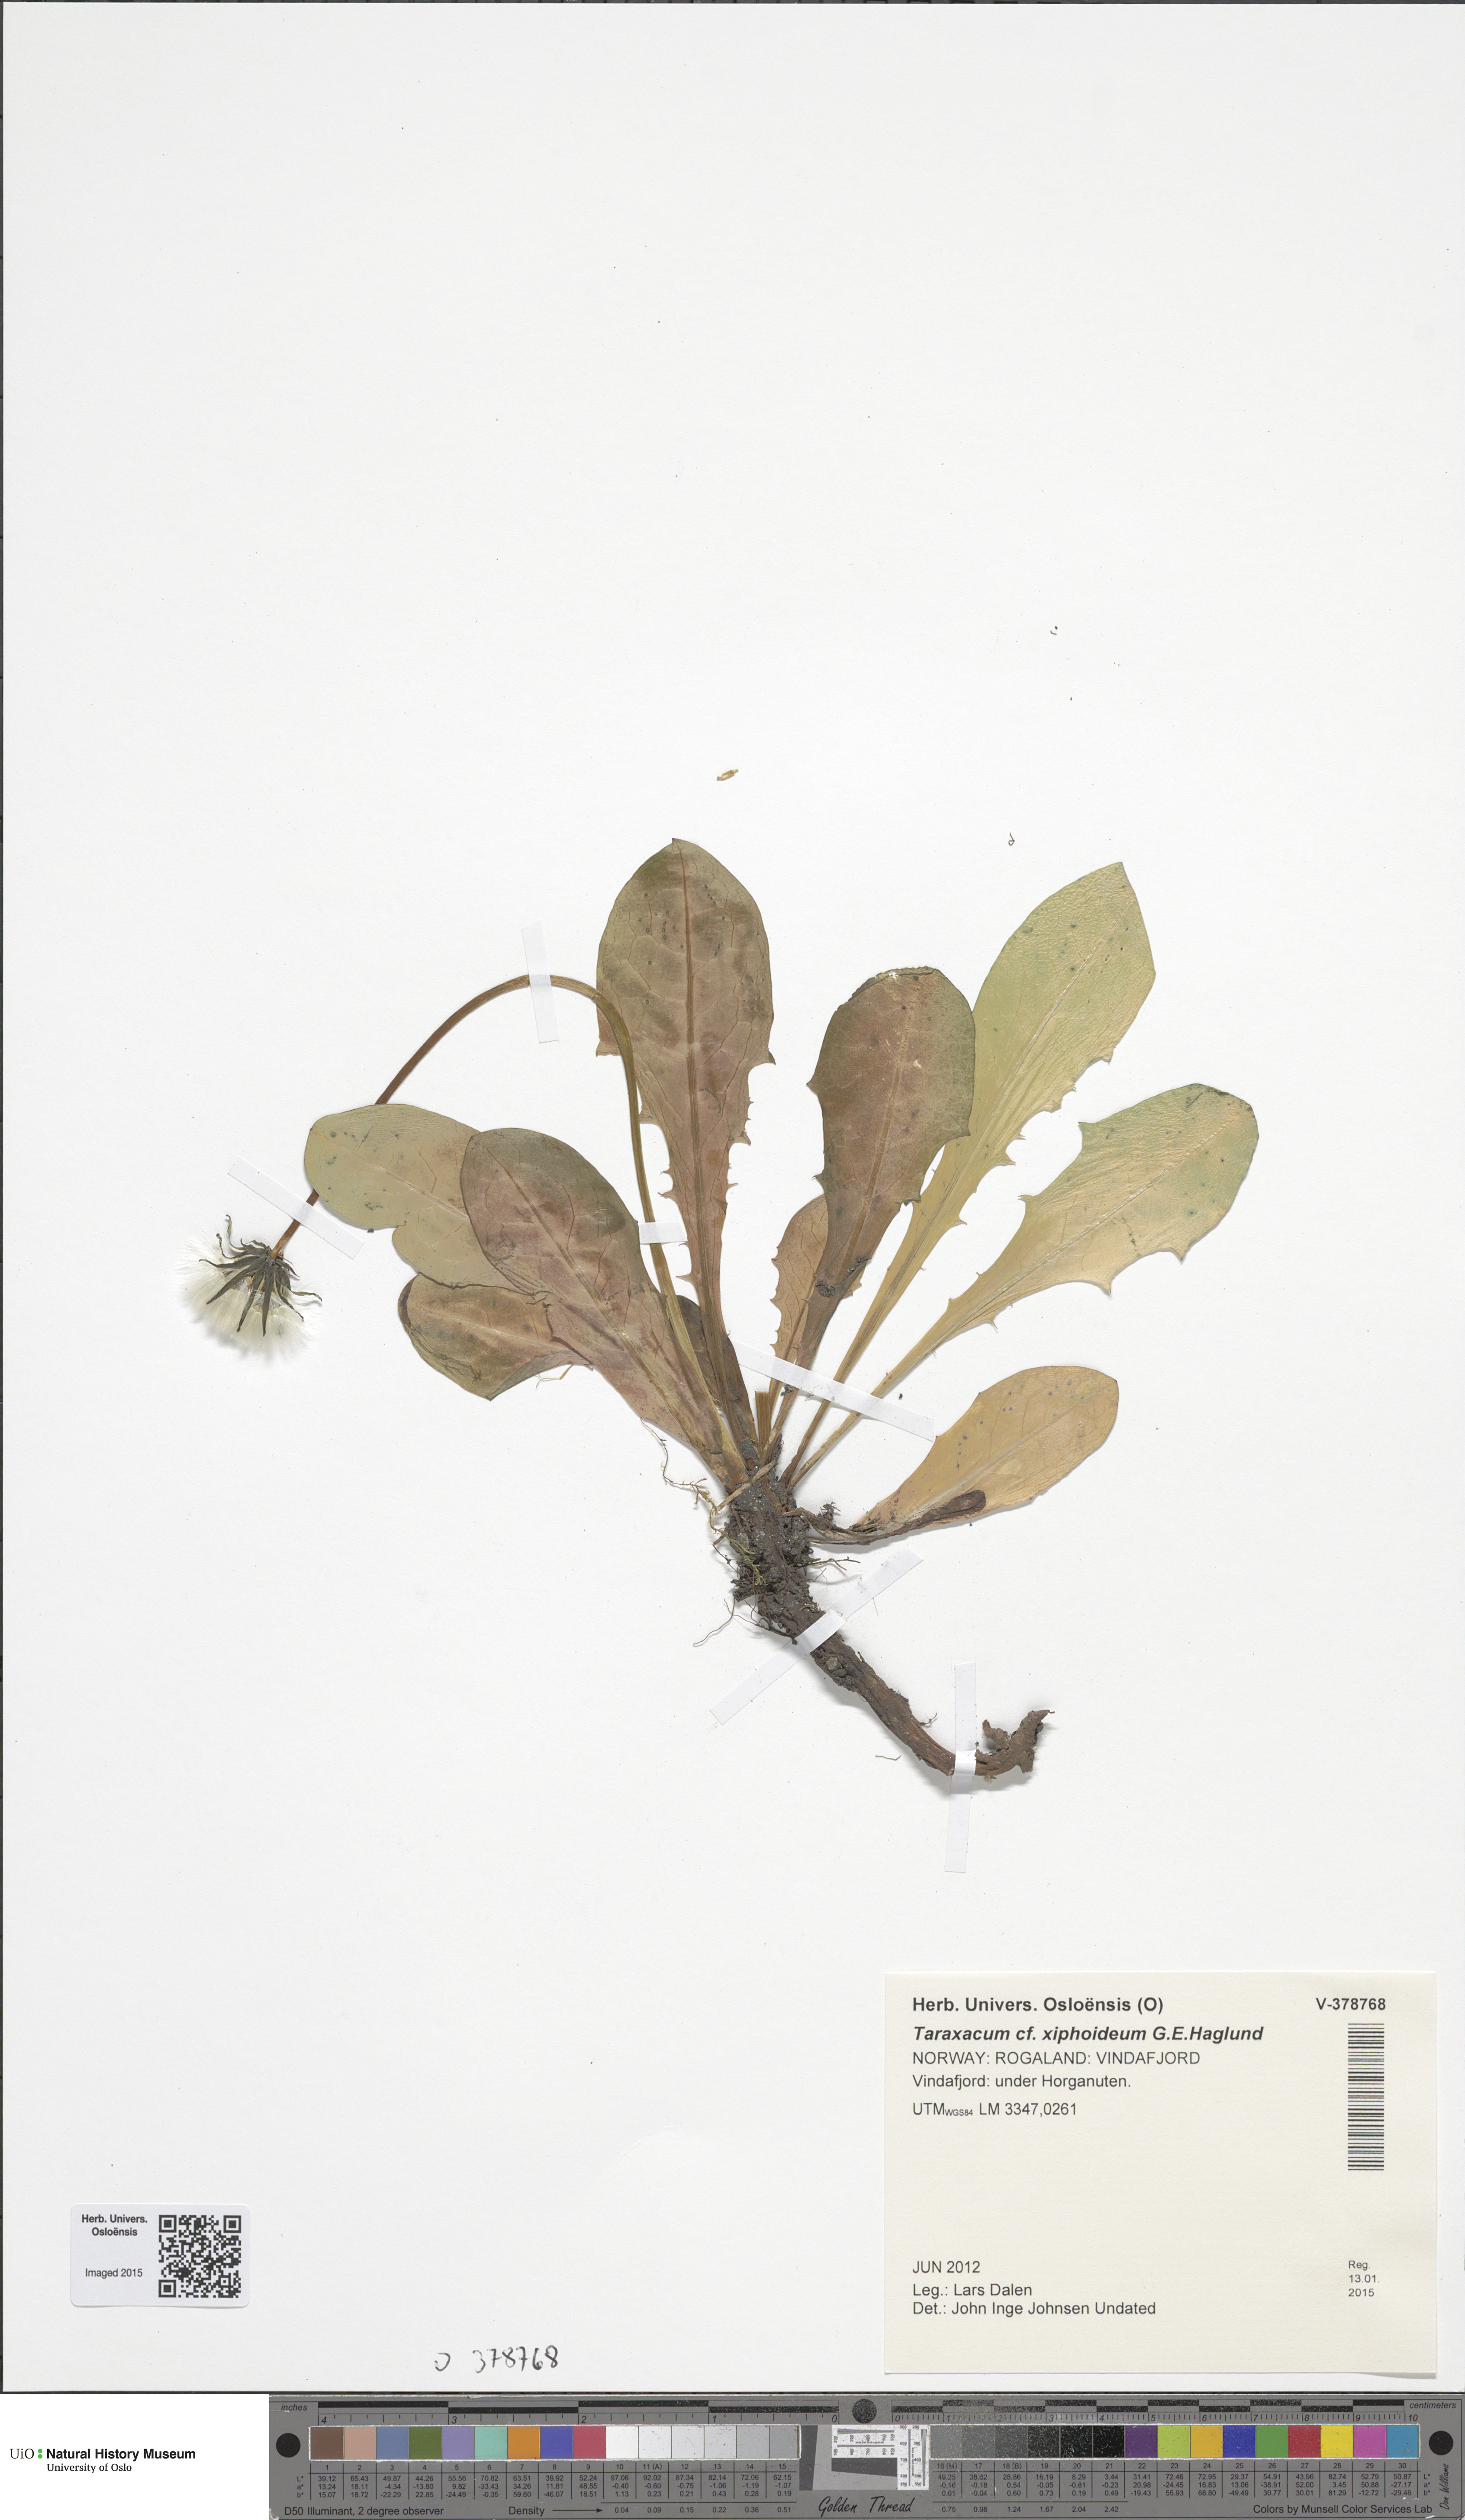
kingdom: Plantae
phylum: Tracheophyta
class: Magnoliopsida
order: Asterales
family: Asteraceae
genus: Taraxacum
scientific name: Taraxacum xiphoideum
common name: Parallel-leaved dandelion
